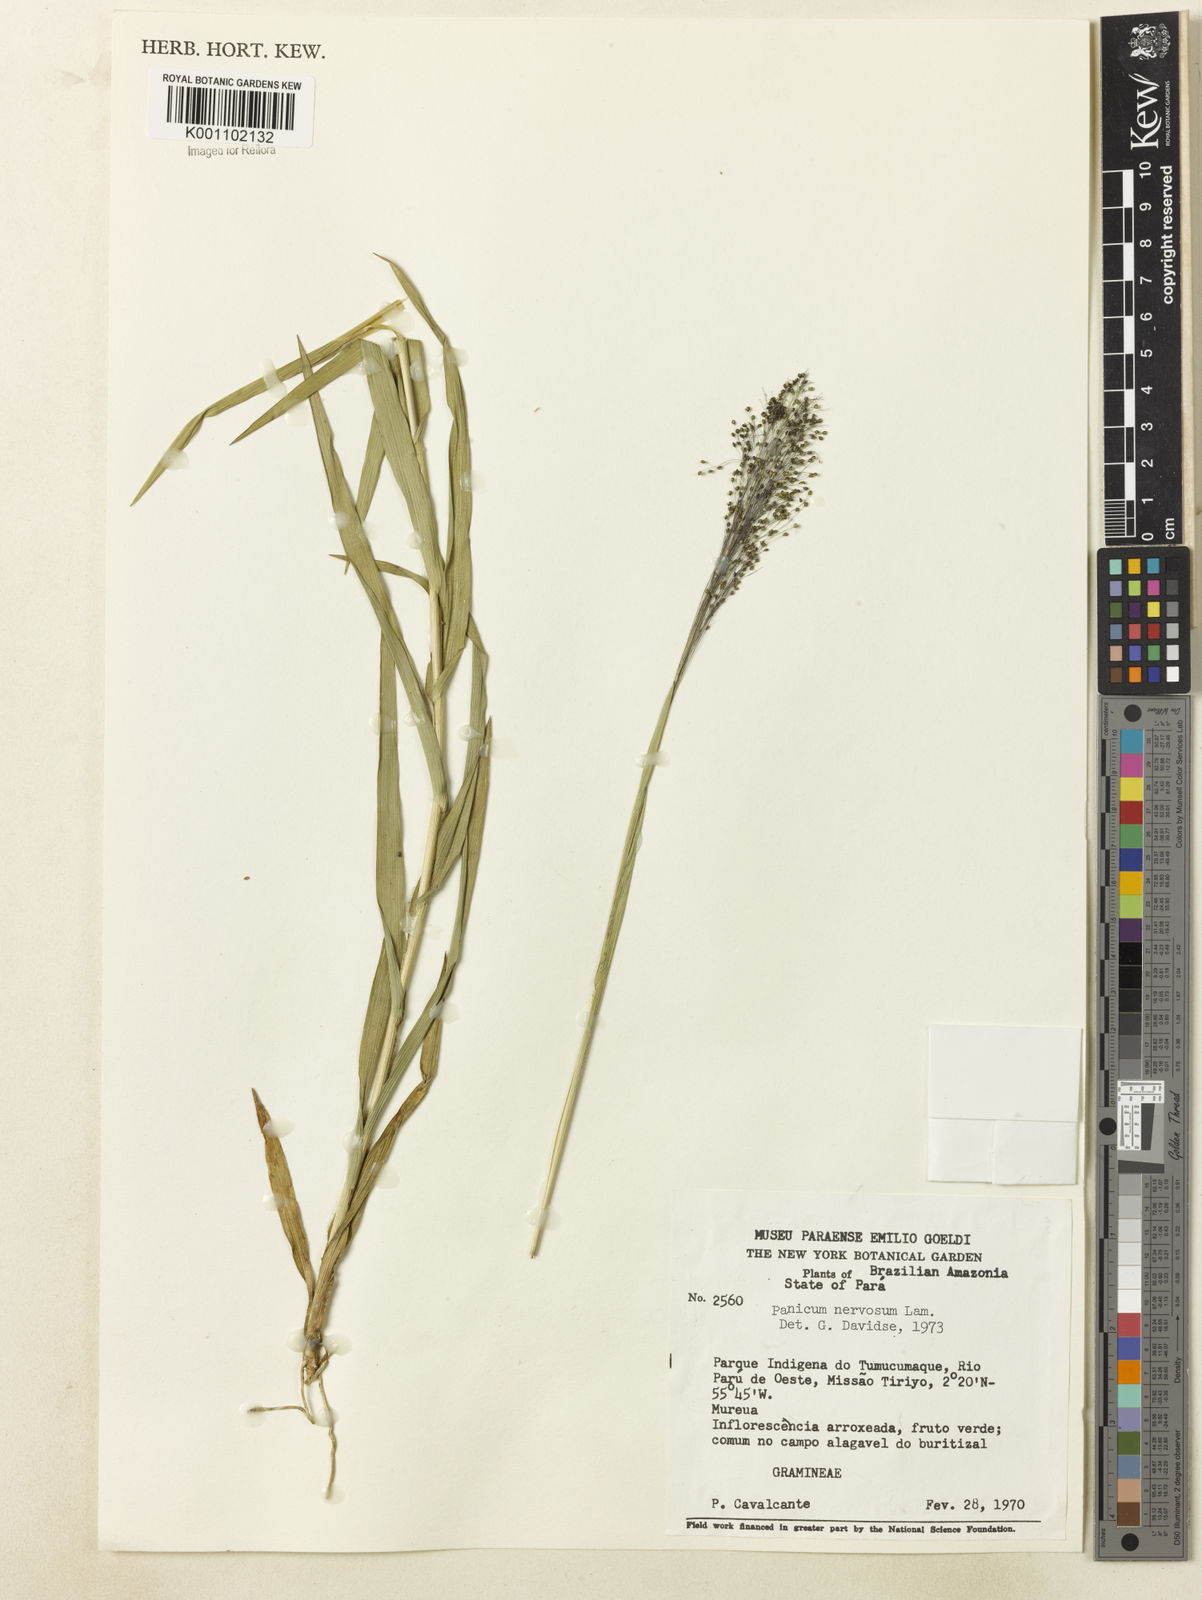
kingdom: Plantae
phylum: Tracheophyta
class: Liliopsida
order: Poales
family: Poaceae
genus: Trichanthecium
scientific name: Trichanthecium nervosum
